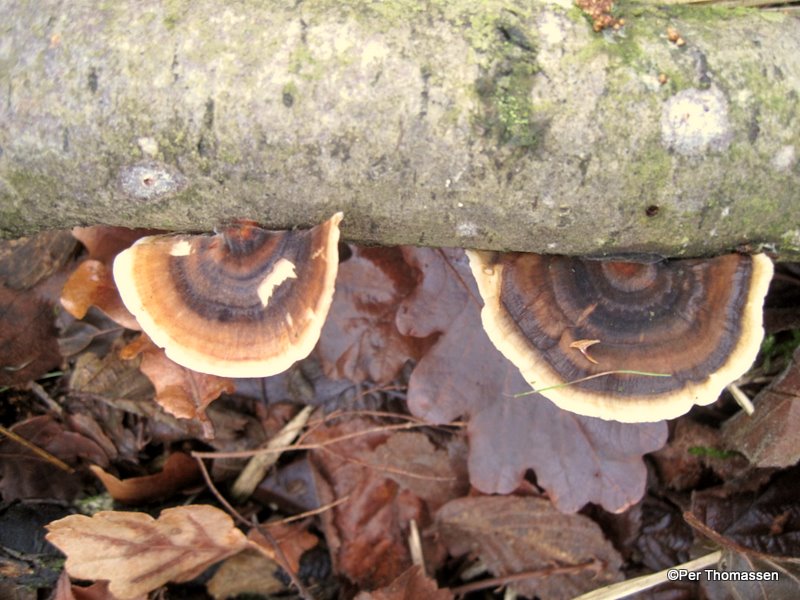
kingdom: Fungi
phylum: Basidiomycota
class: Agaricomycetes
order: Polyporales
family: Polyporaceae
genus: Trametes
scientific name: Trametes versicolor
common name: broget læderporesvamp
